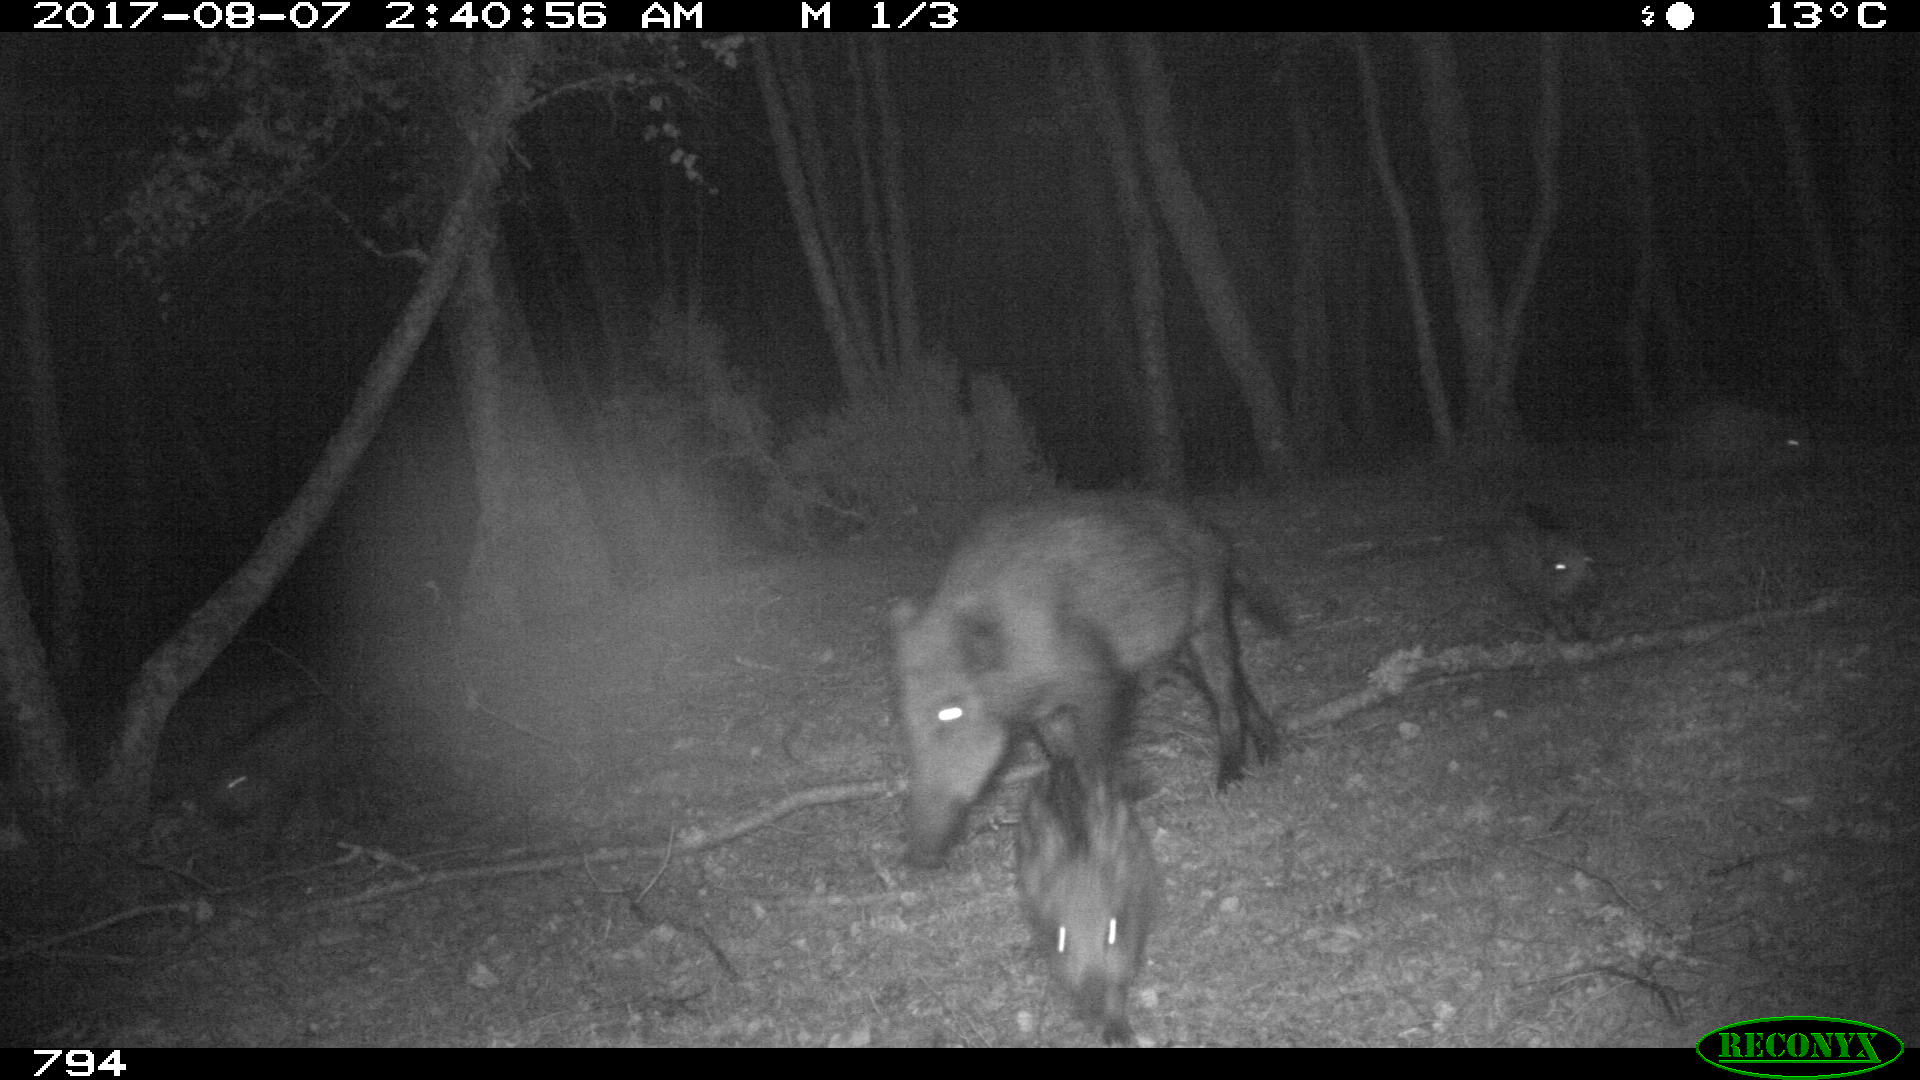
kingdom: Animalia
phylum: Chordata
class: Mammalia
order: Artiodactyla
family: Suidae
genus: Sus
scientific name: Sus scrofa
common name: Wild boar
